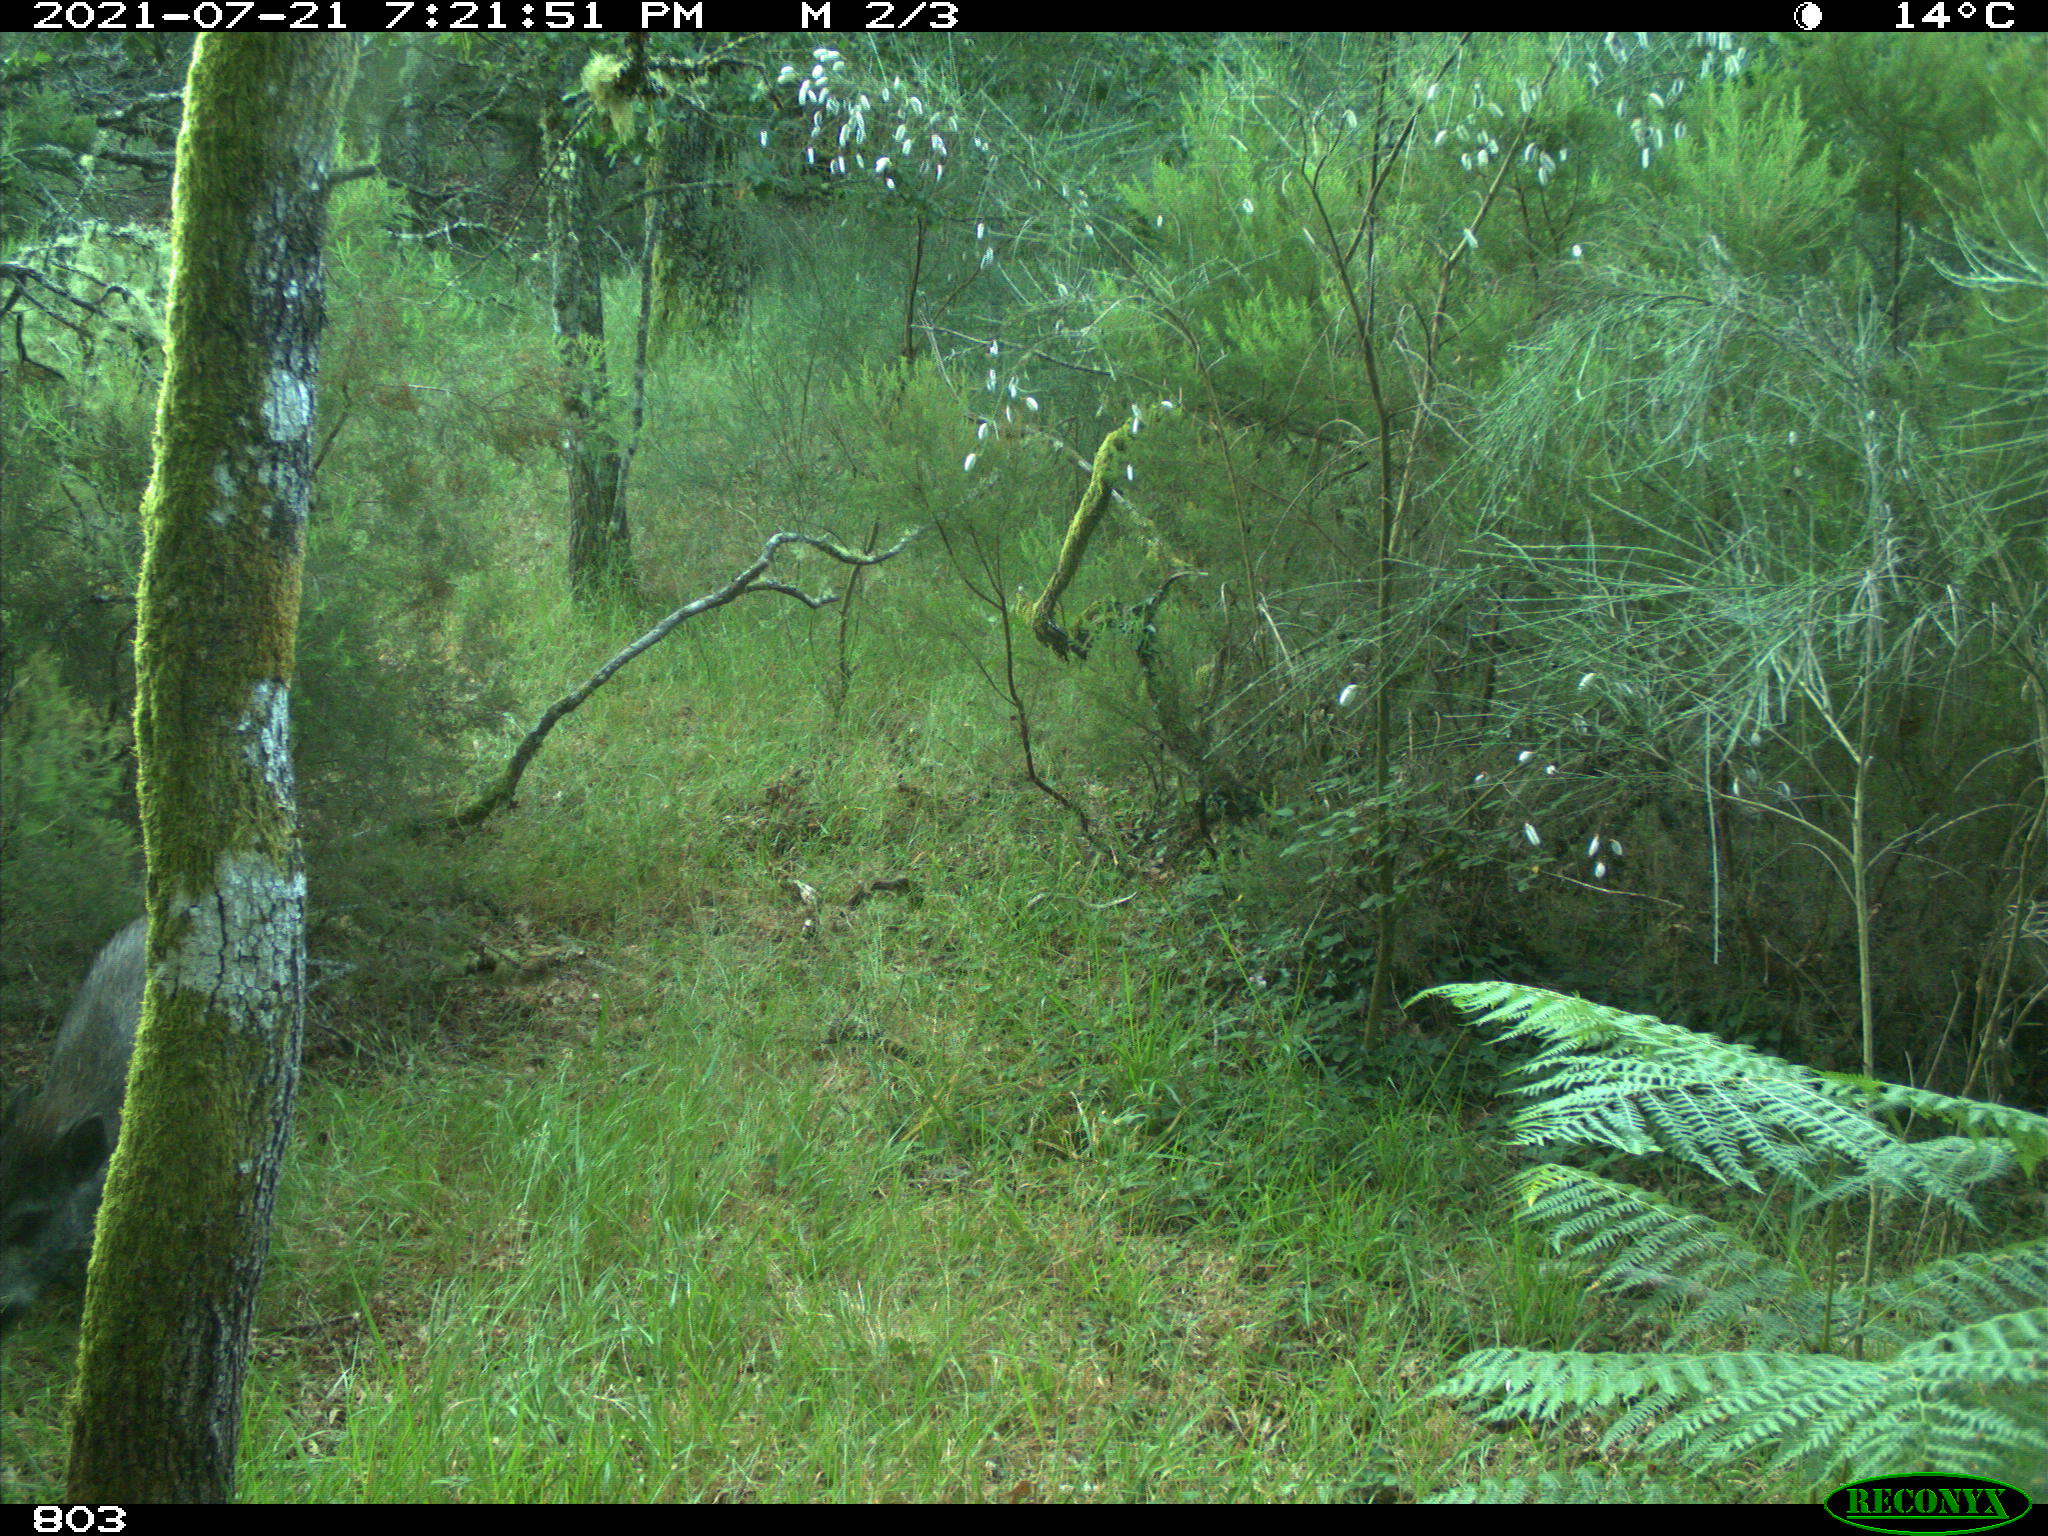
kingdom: Animalia
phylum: Chordata
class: Mammalia
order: Artiodactyla
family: Suidae
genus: Sus
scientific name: Sus scrofa
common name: Wild boar
